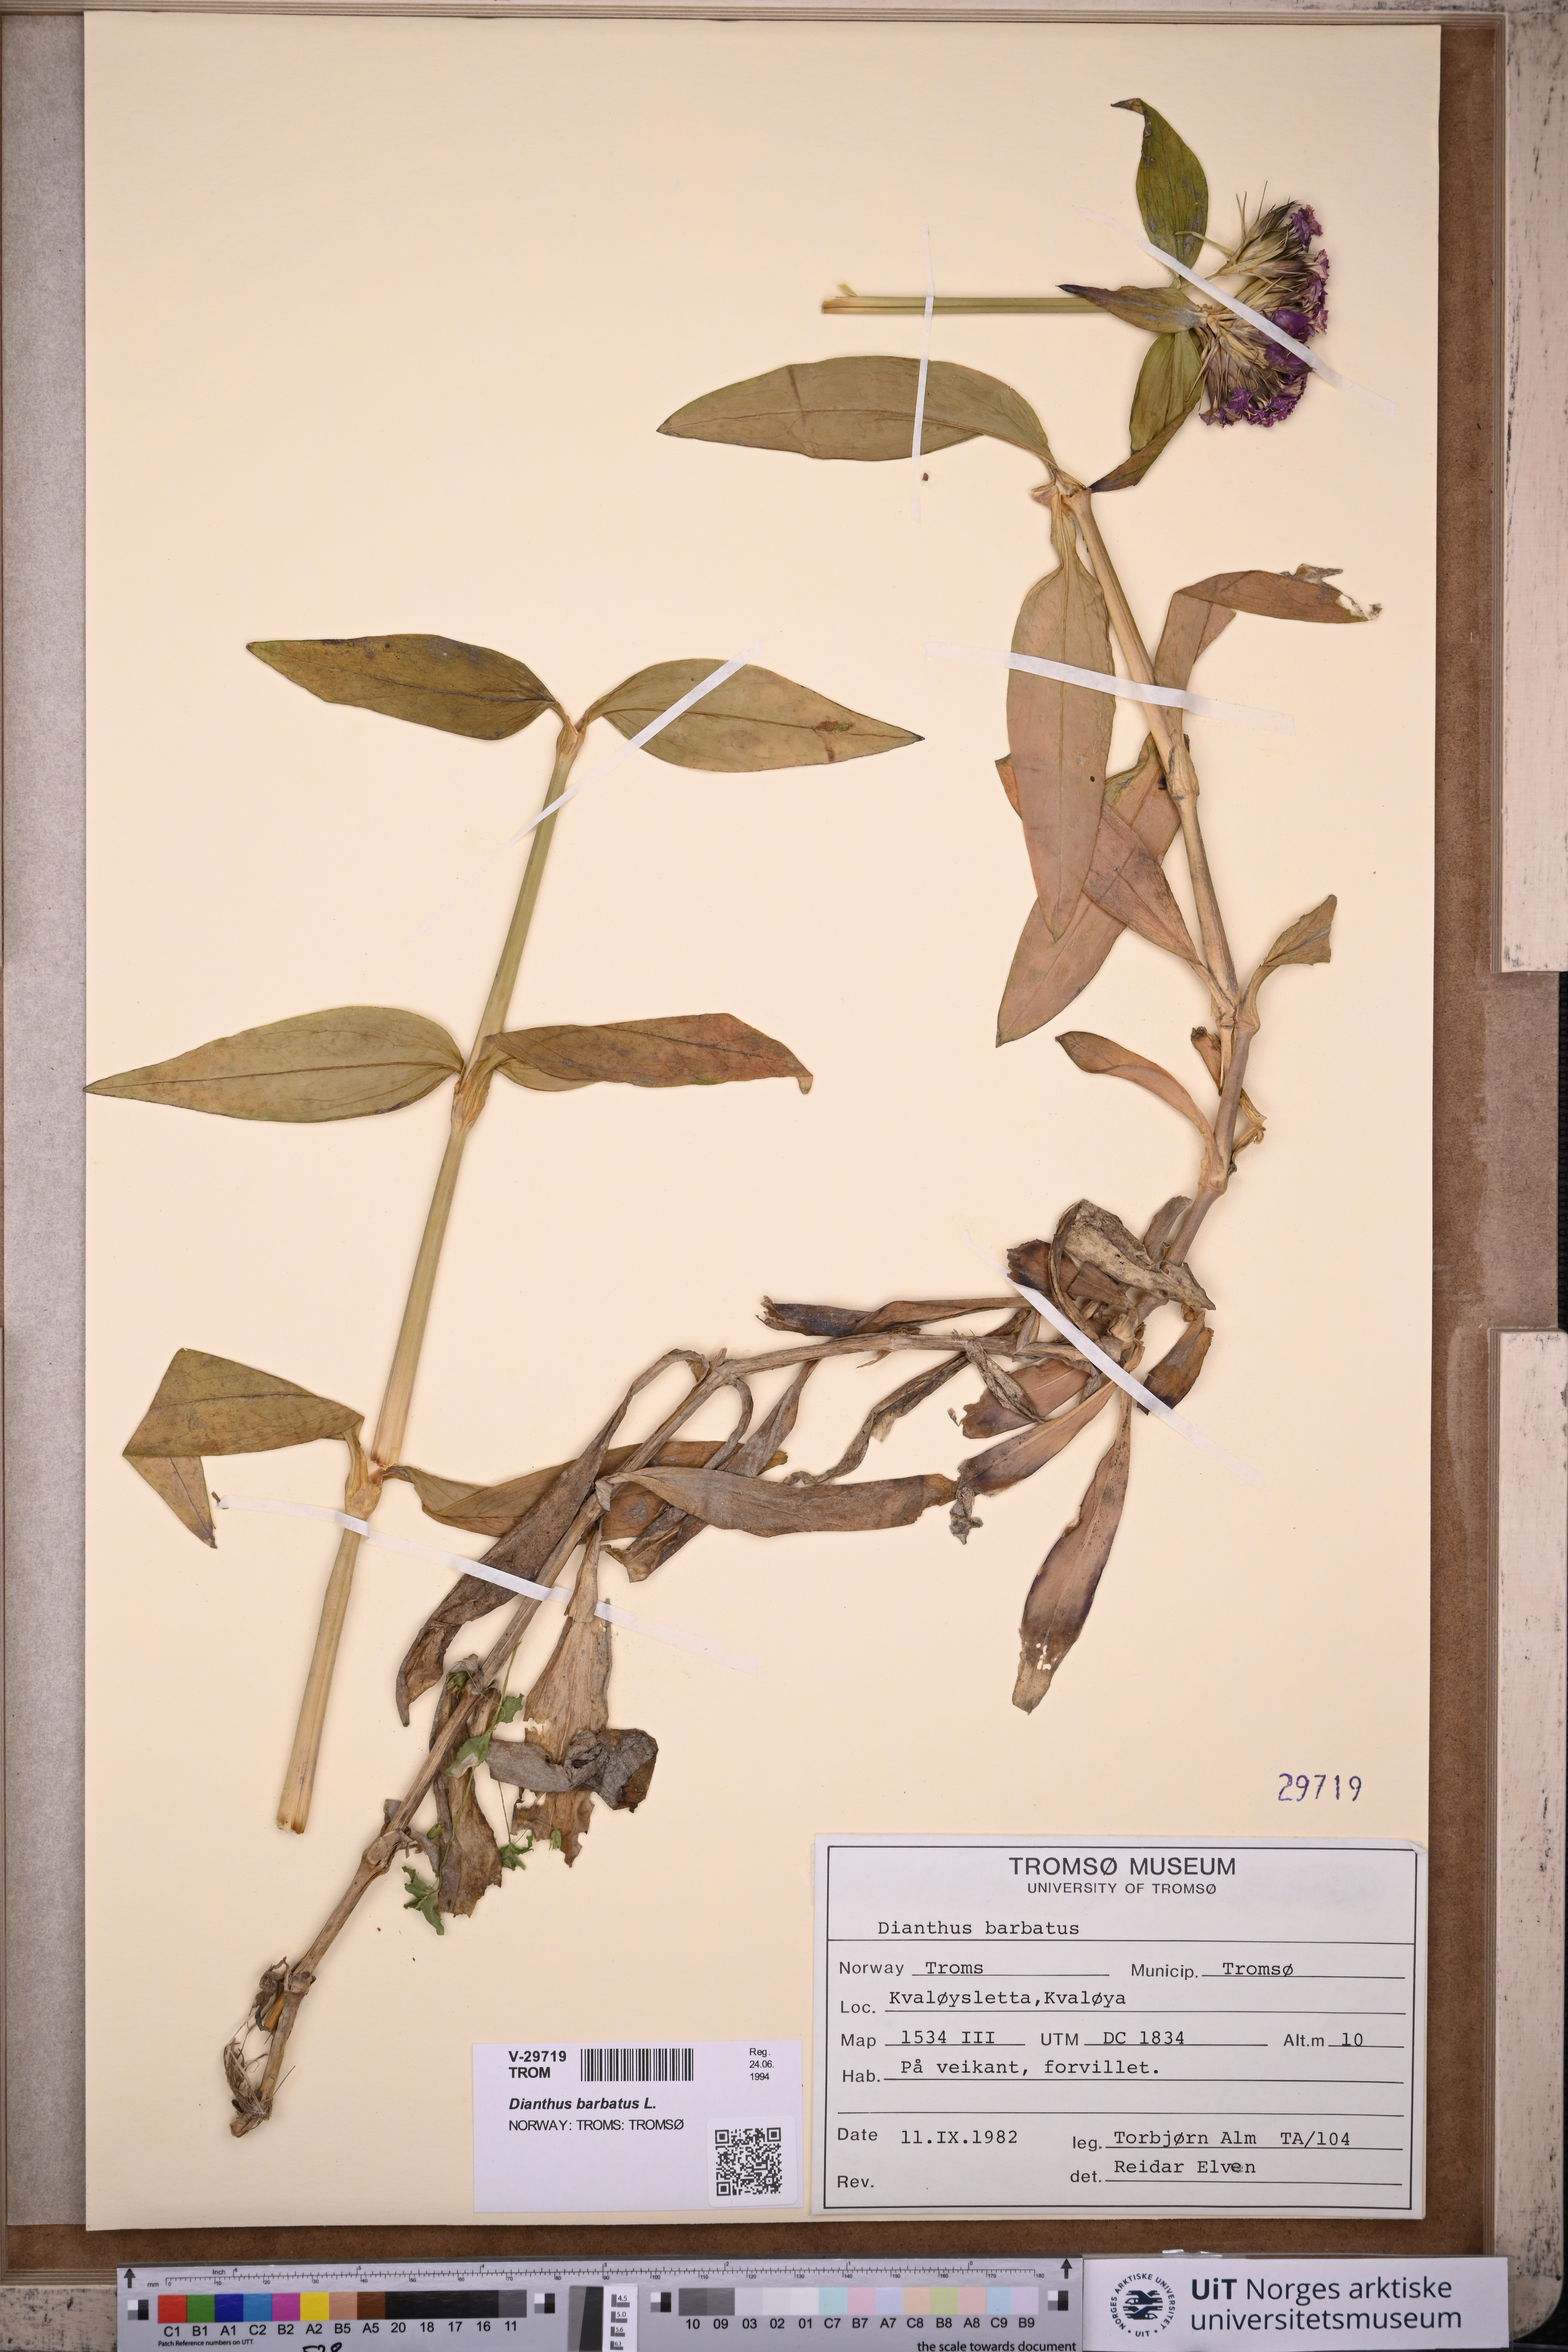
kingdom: Plantae
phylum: Tracheophyta
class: Magnoliopsida
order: Caryophyllales
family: Caryophyllaceae
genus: Dianthus
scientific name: Dianthus barbatus
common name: Sweet-william
